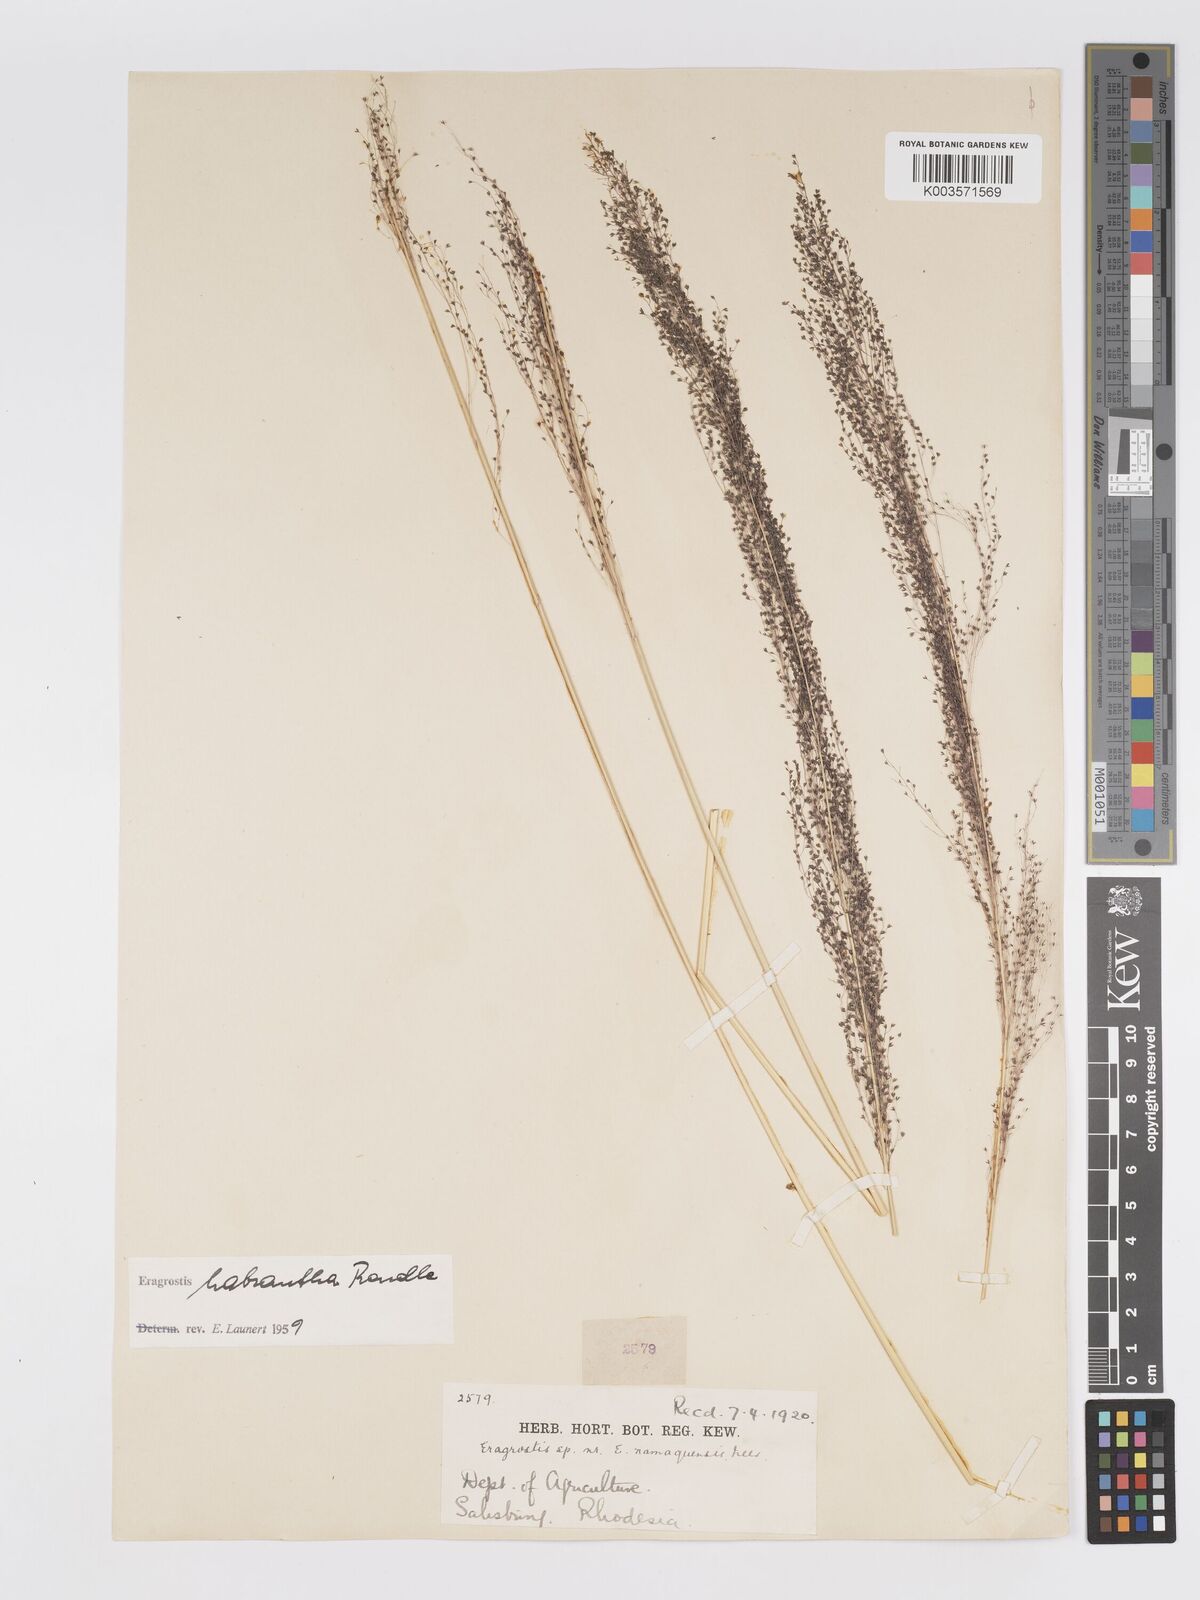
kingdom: Plantae
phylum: Tracheophyta
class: Liliopsida
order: Poales
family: Poaceae
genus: Eragrostis
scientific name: Eragrostis habrantha
